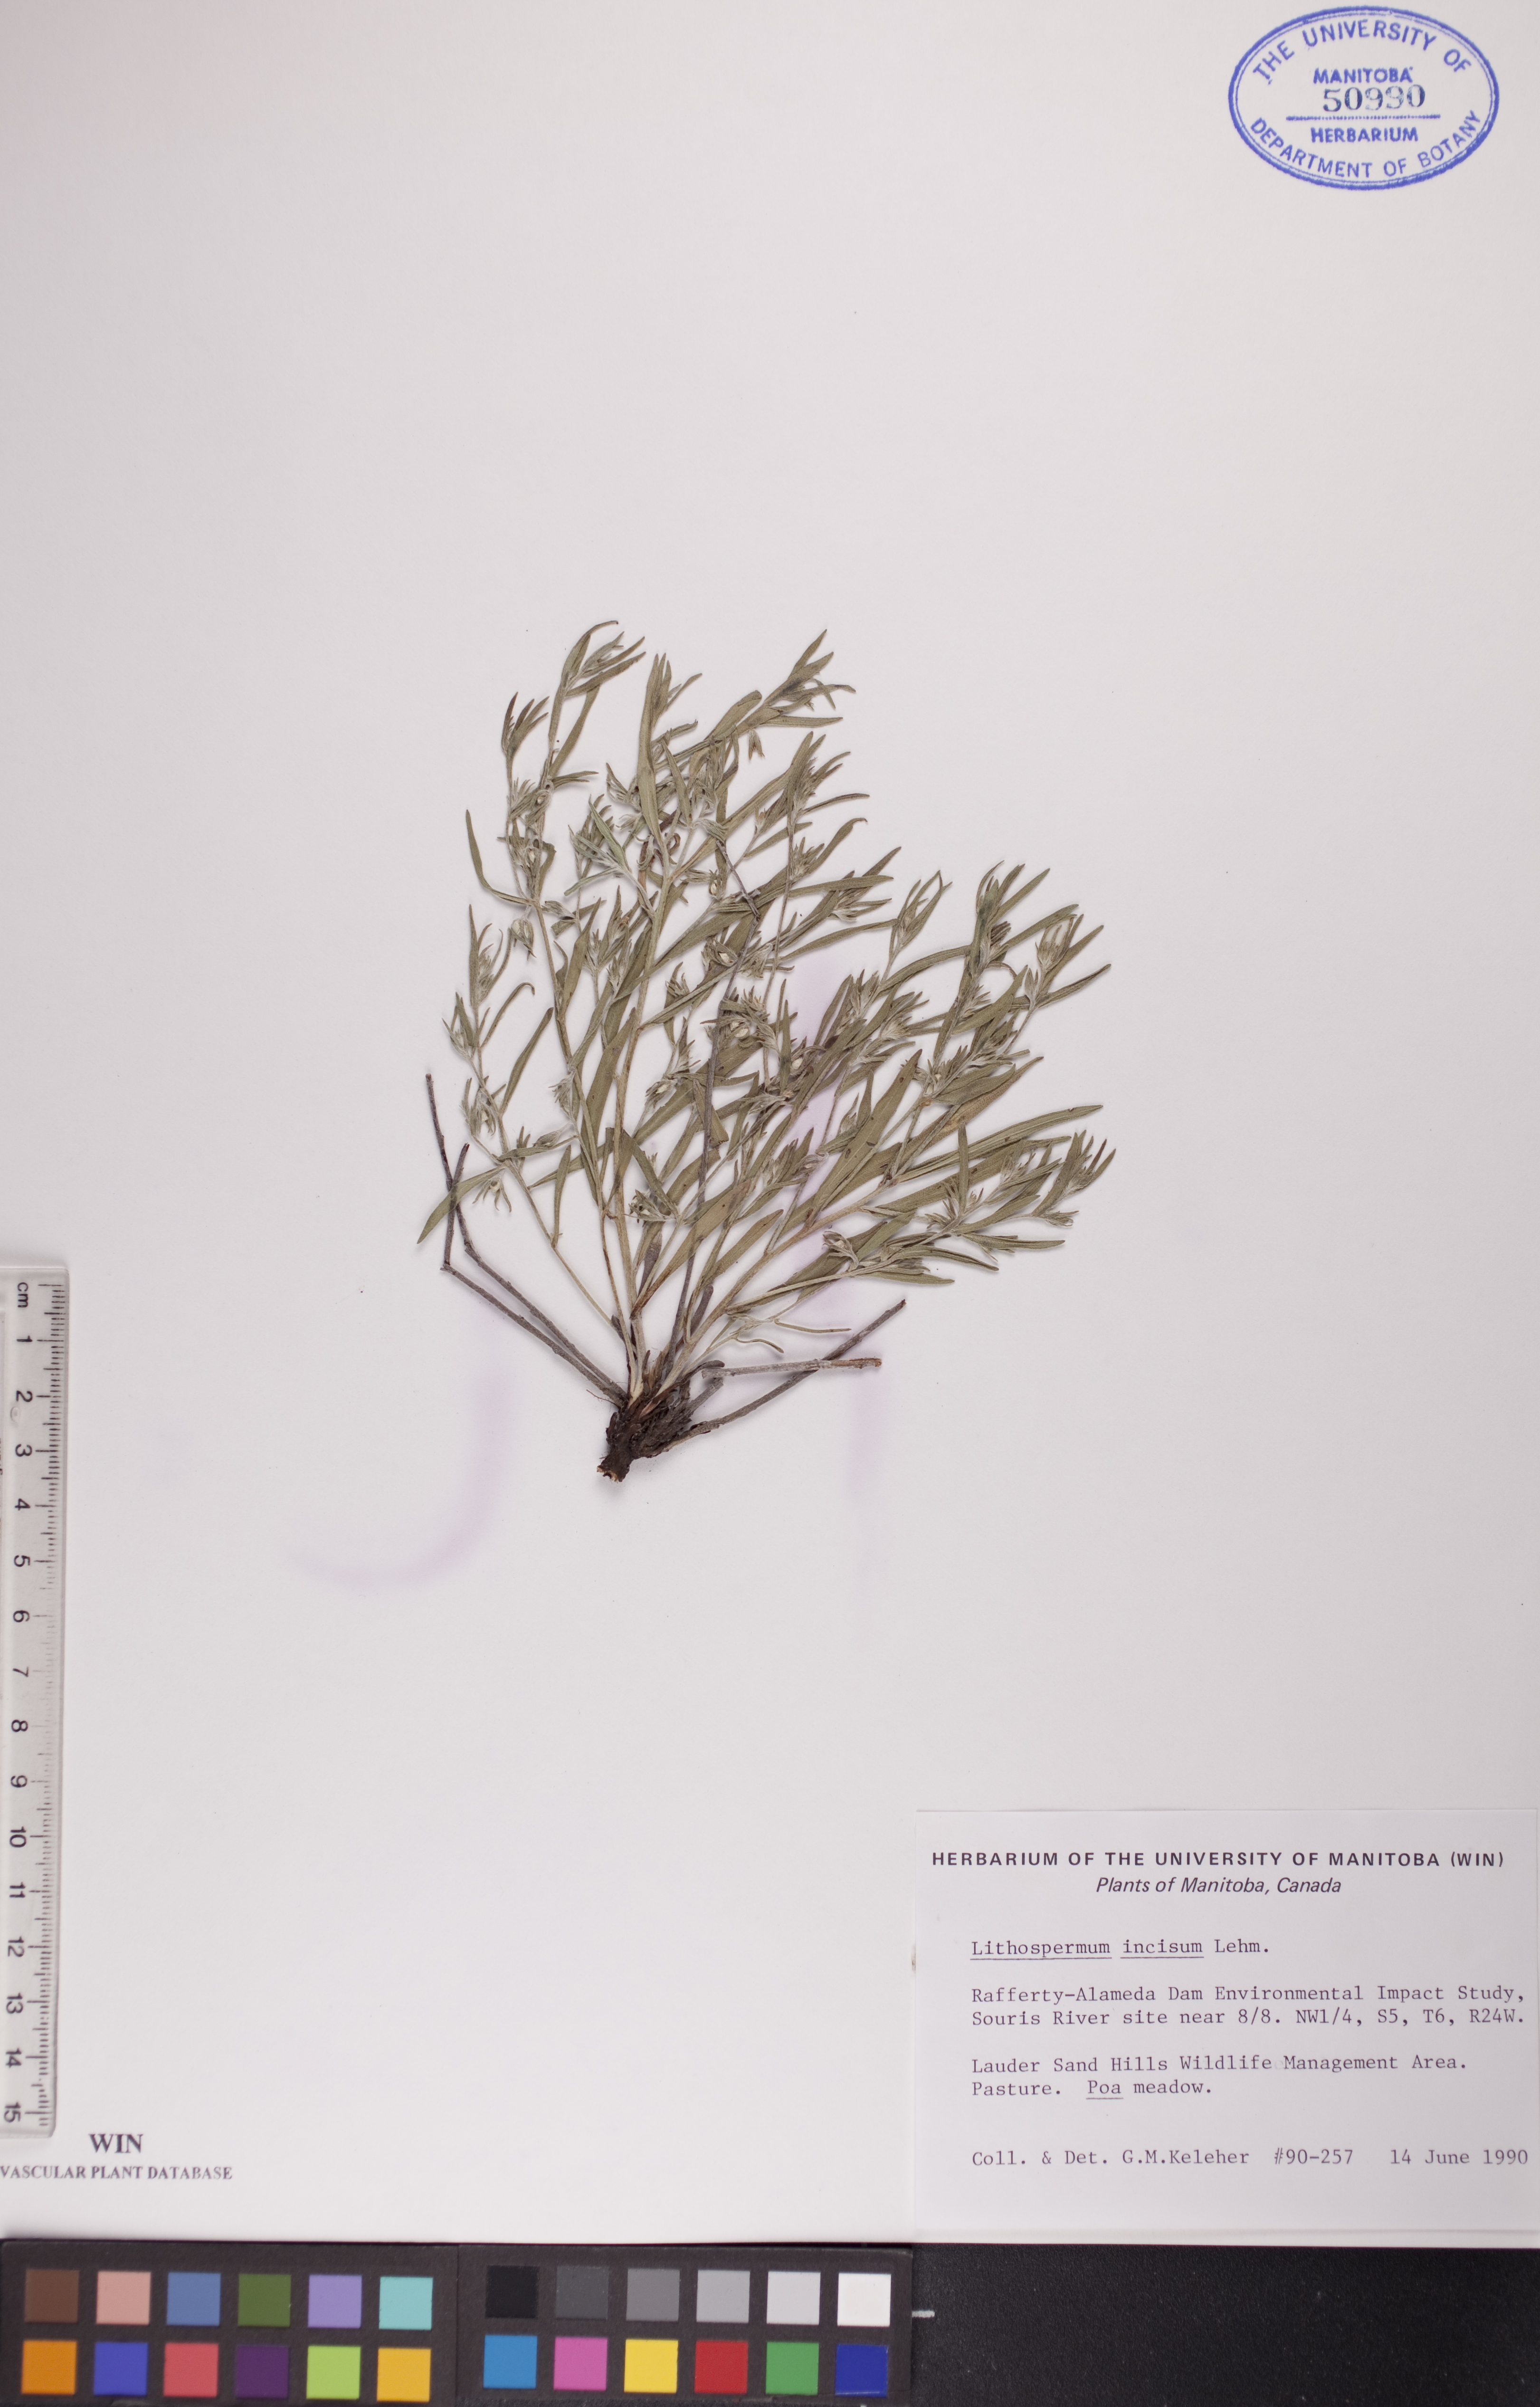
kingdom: Plantae
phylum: Tracheophyta
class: Magnoliopsida
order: Boraginales
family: Boraginaceae
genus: Lithospermum
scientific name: Lithospermum incisum
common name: Fringed gromwell
